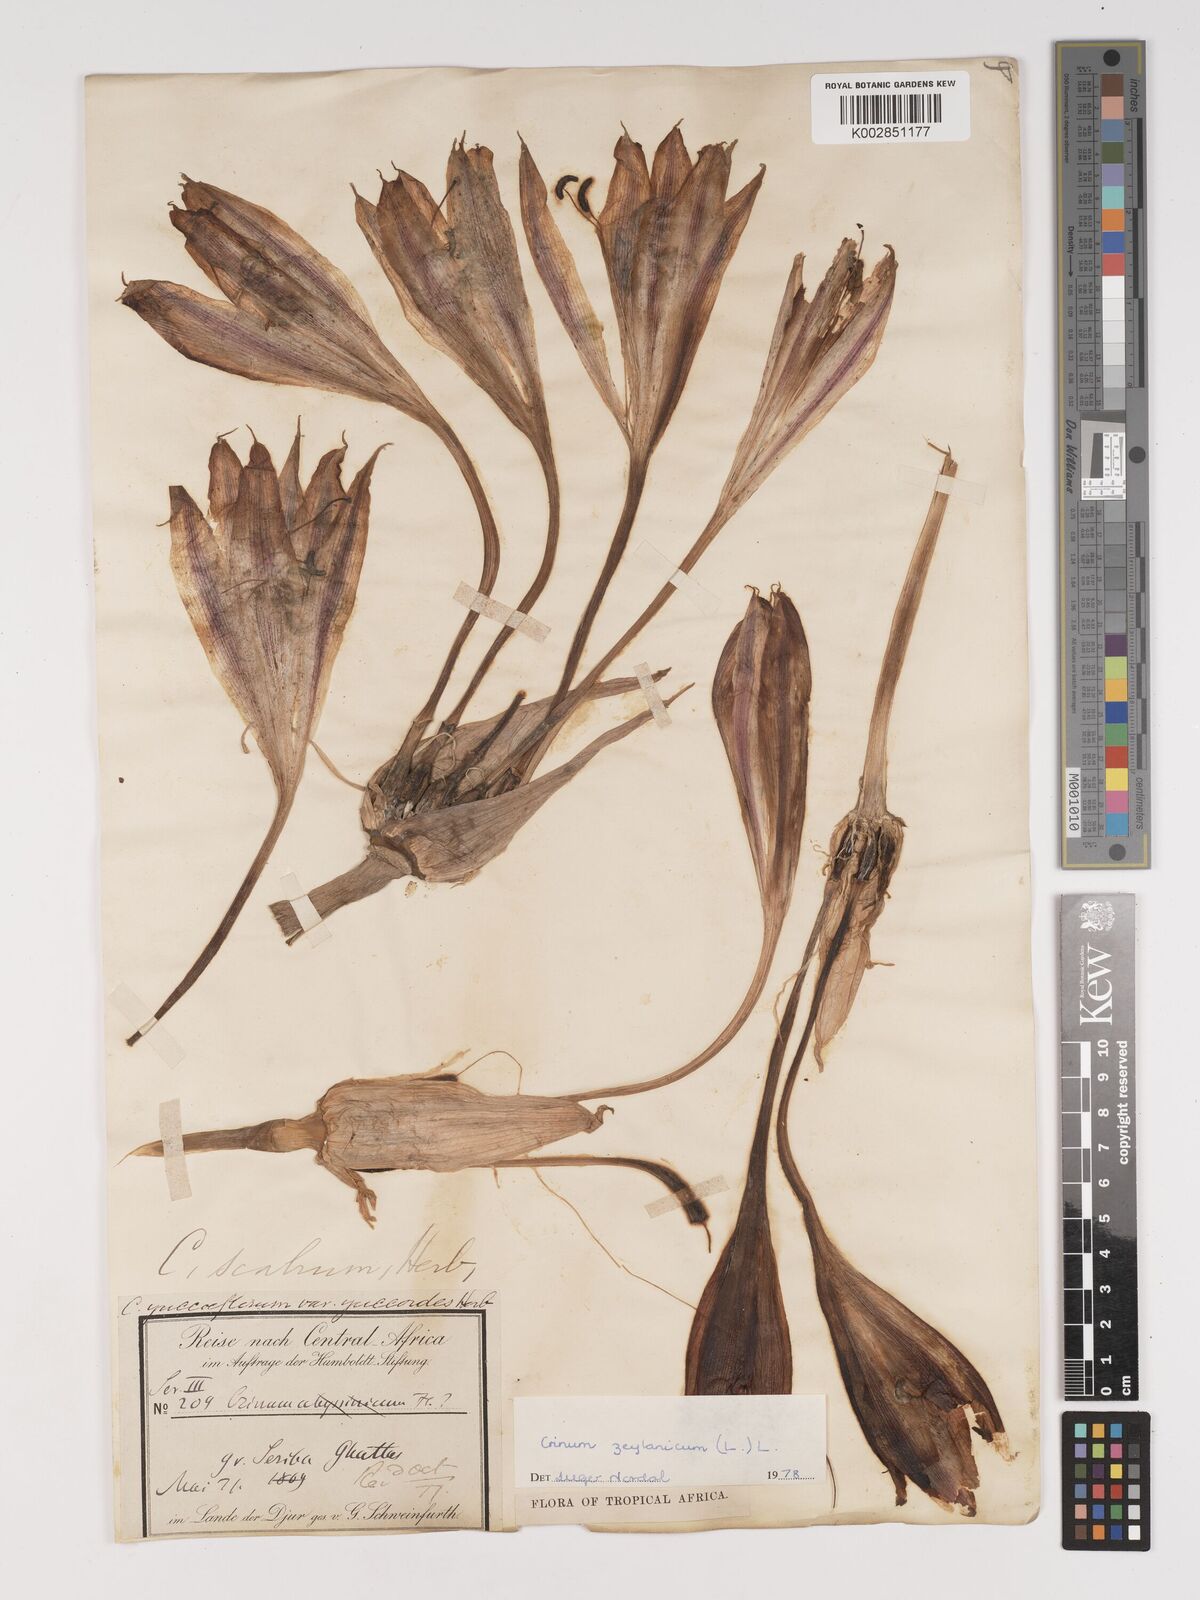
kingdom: Plantae
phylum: Tracheophyta
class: Liliopsida
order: Asparagales
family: Amaryllidaceae
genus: Crinum
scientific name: Crinum zeylanicum
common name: Ceylon swamplily
